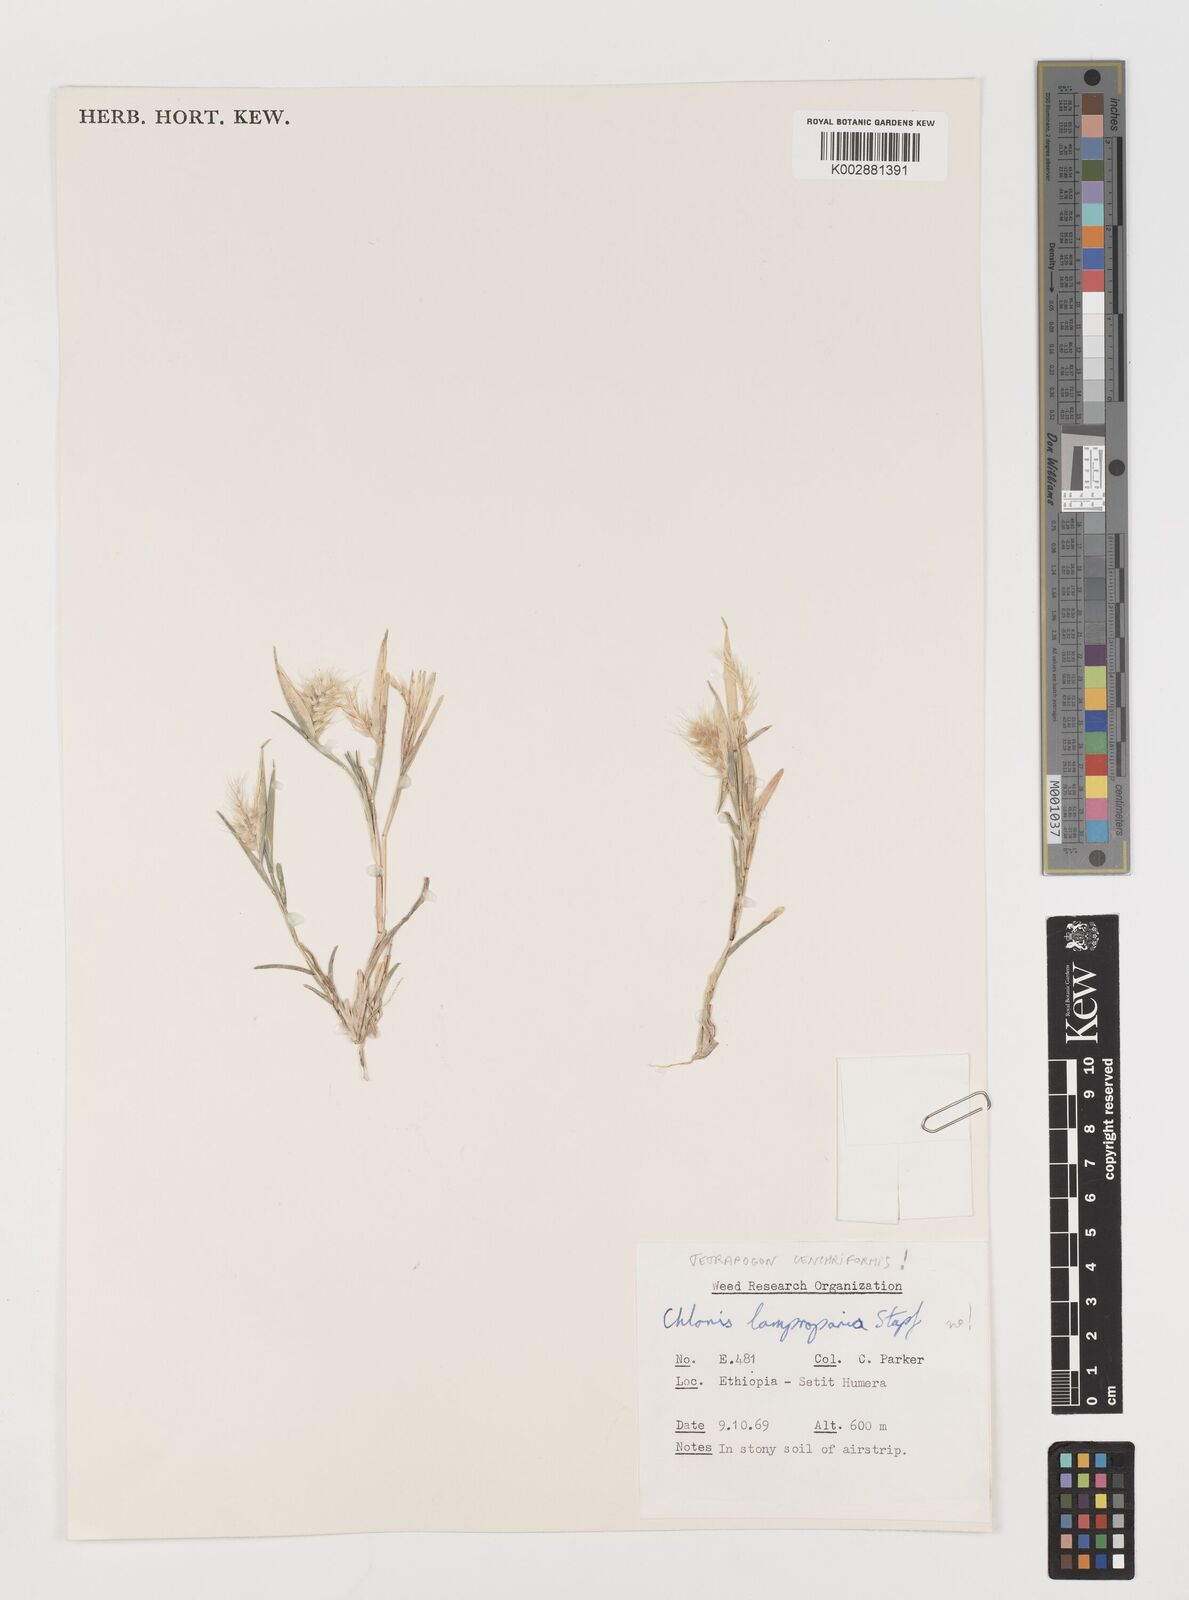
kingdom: Plantae
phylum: Tracheophyta
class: Liliopsida
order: Poales
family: Poaceae
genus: Tetrapogon
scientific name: Tetrapogon cenchriformis
